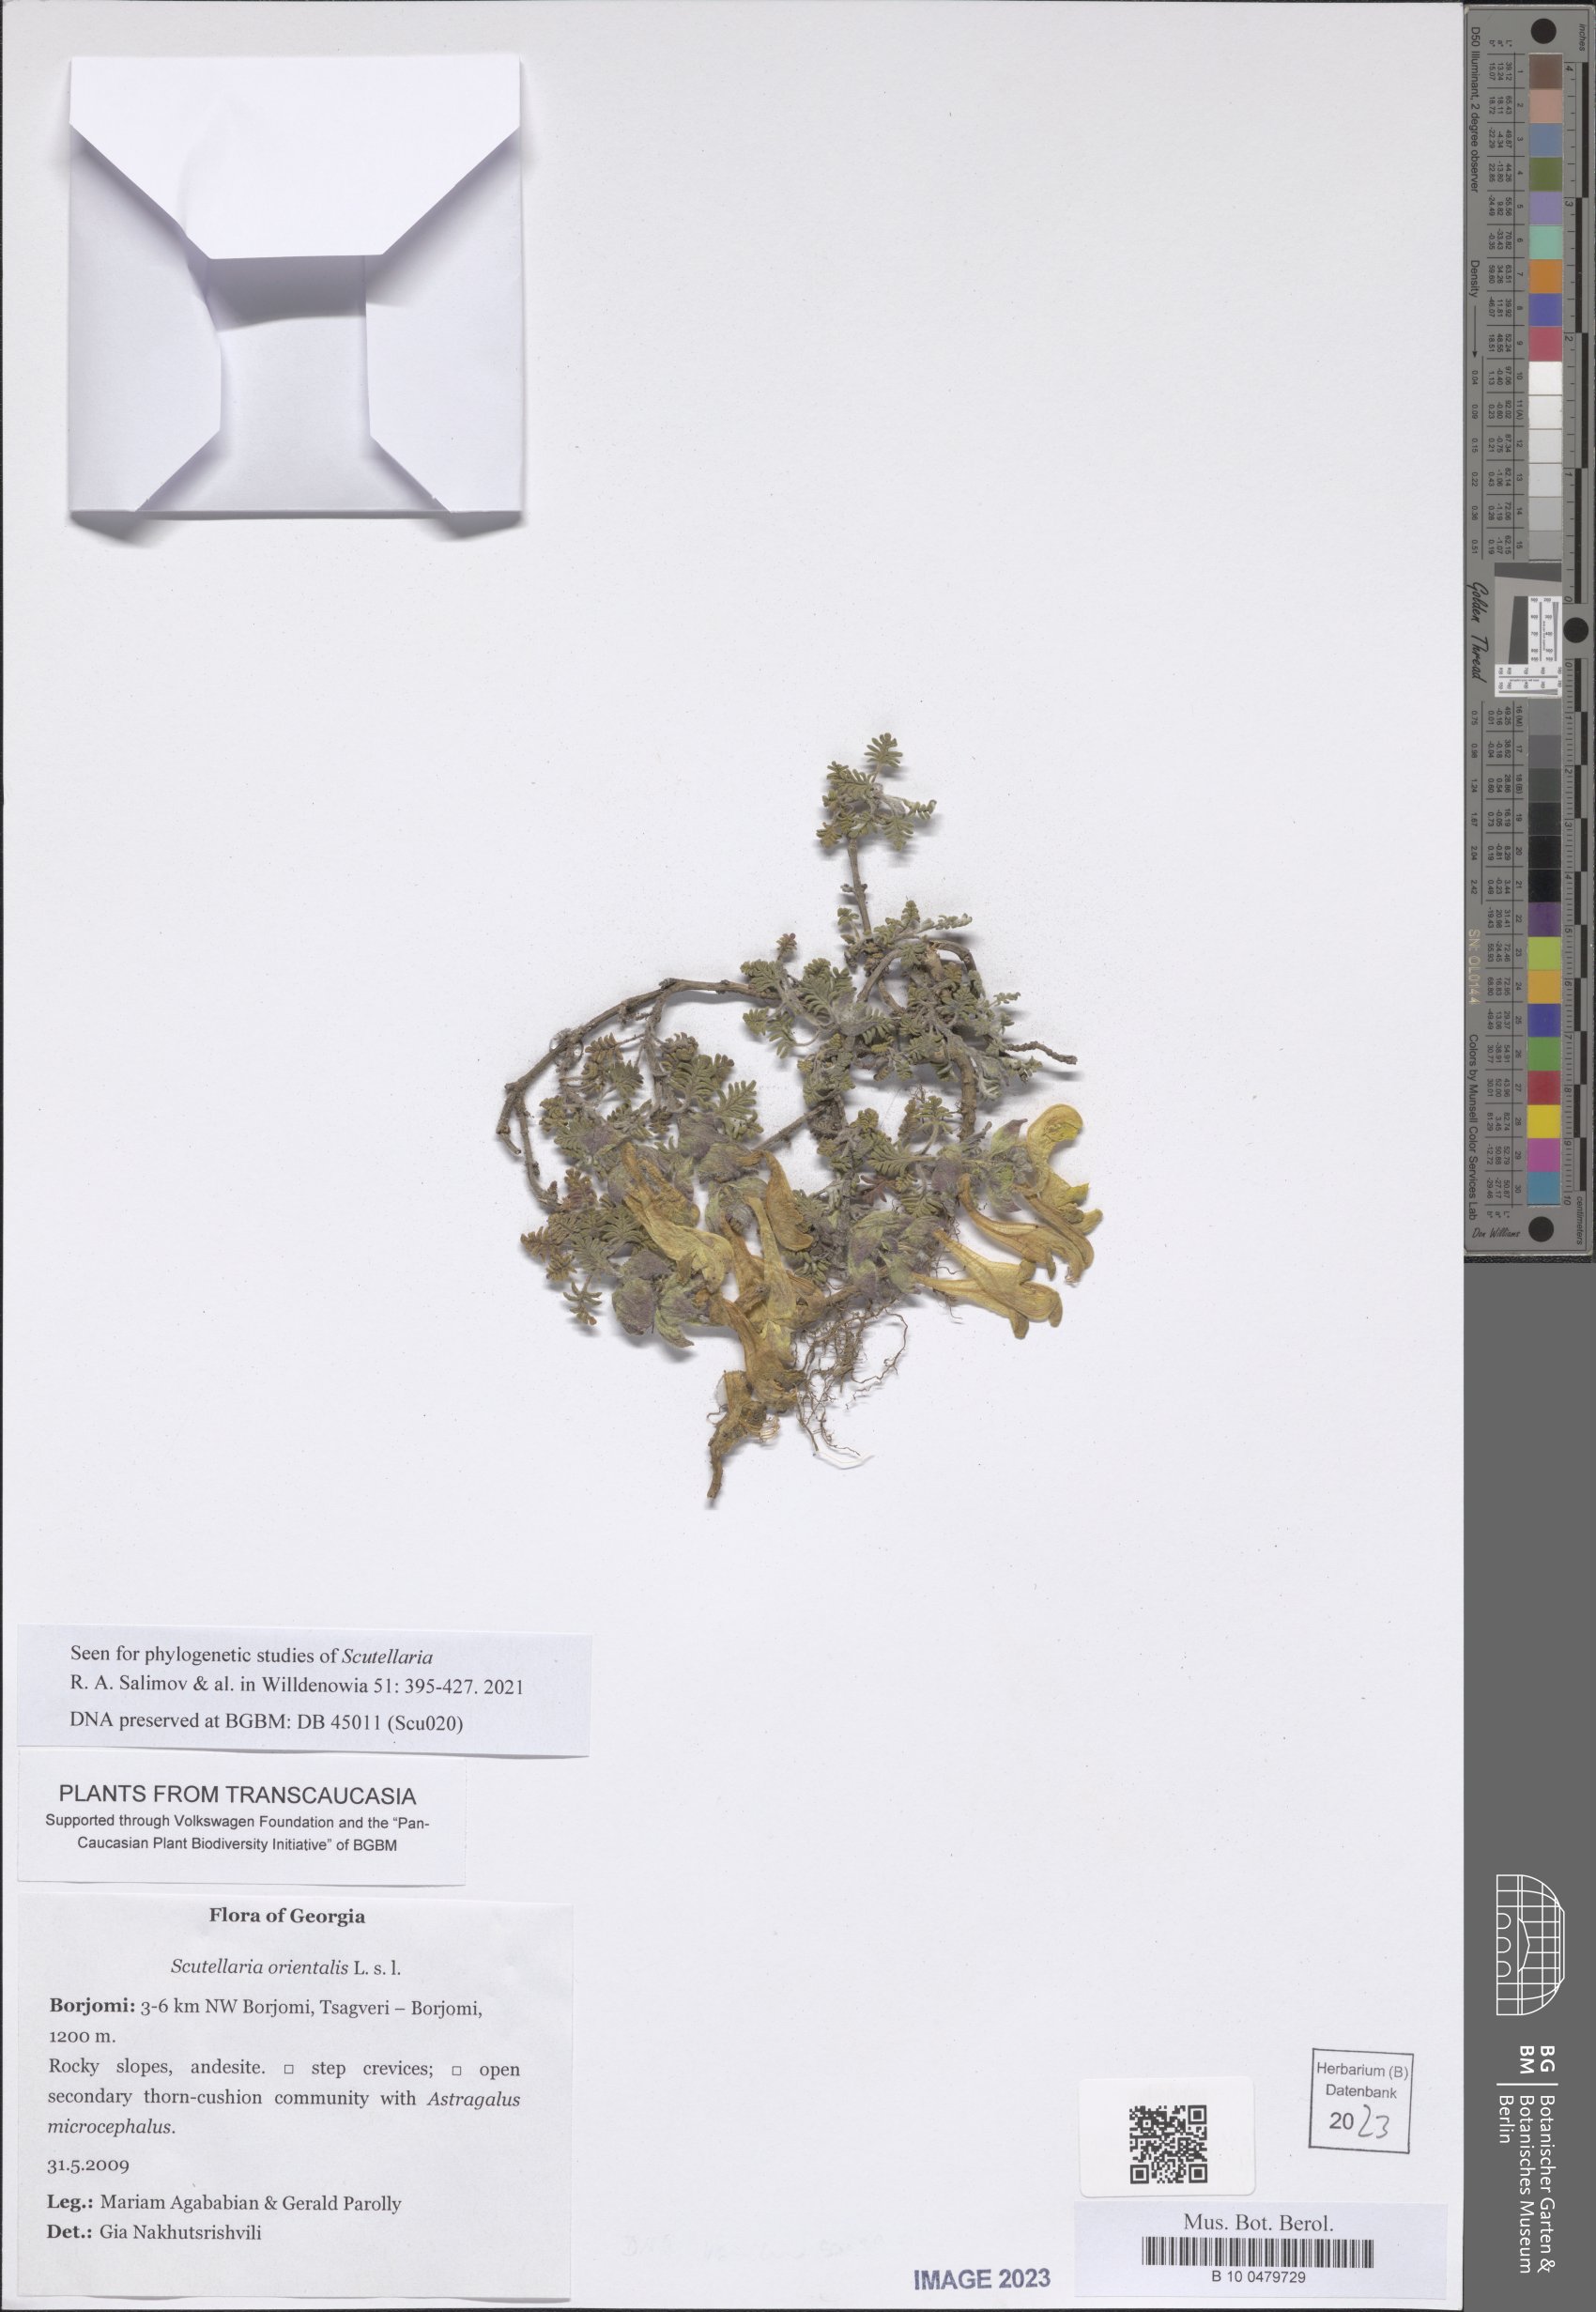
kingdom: Plantae
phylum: Tracheophyta
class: Magnoliopsida
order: Lamiales
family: Lamiaceae
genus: Scutellaria
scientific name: Scutellaria orientalis
